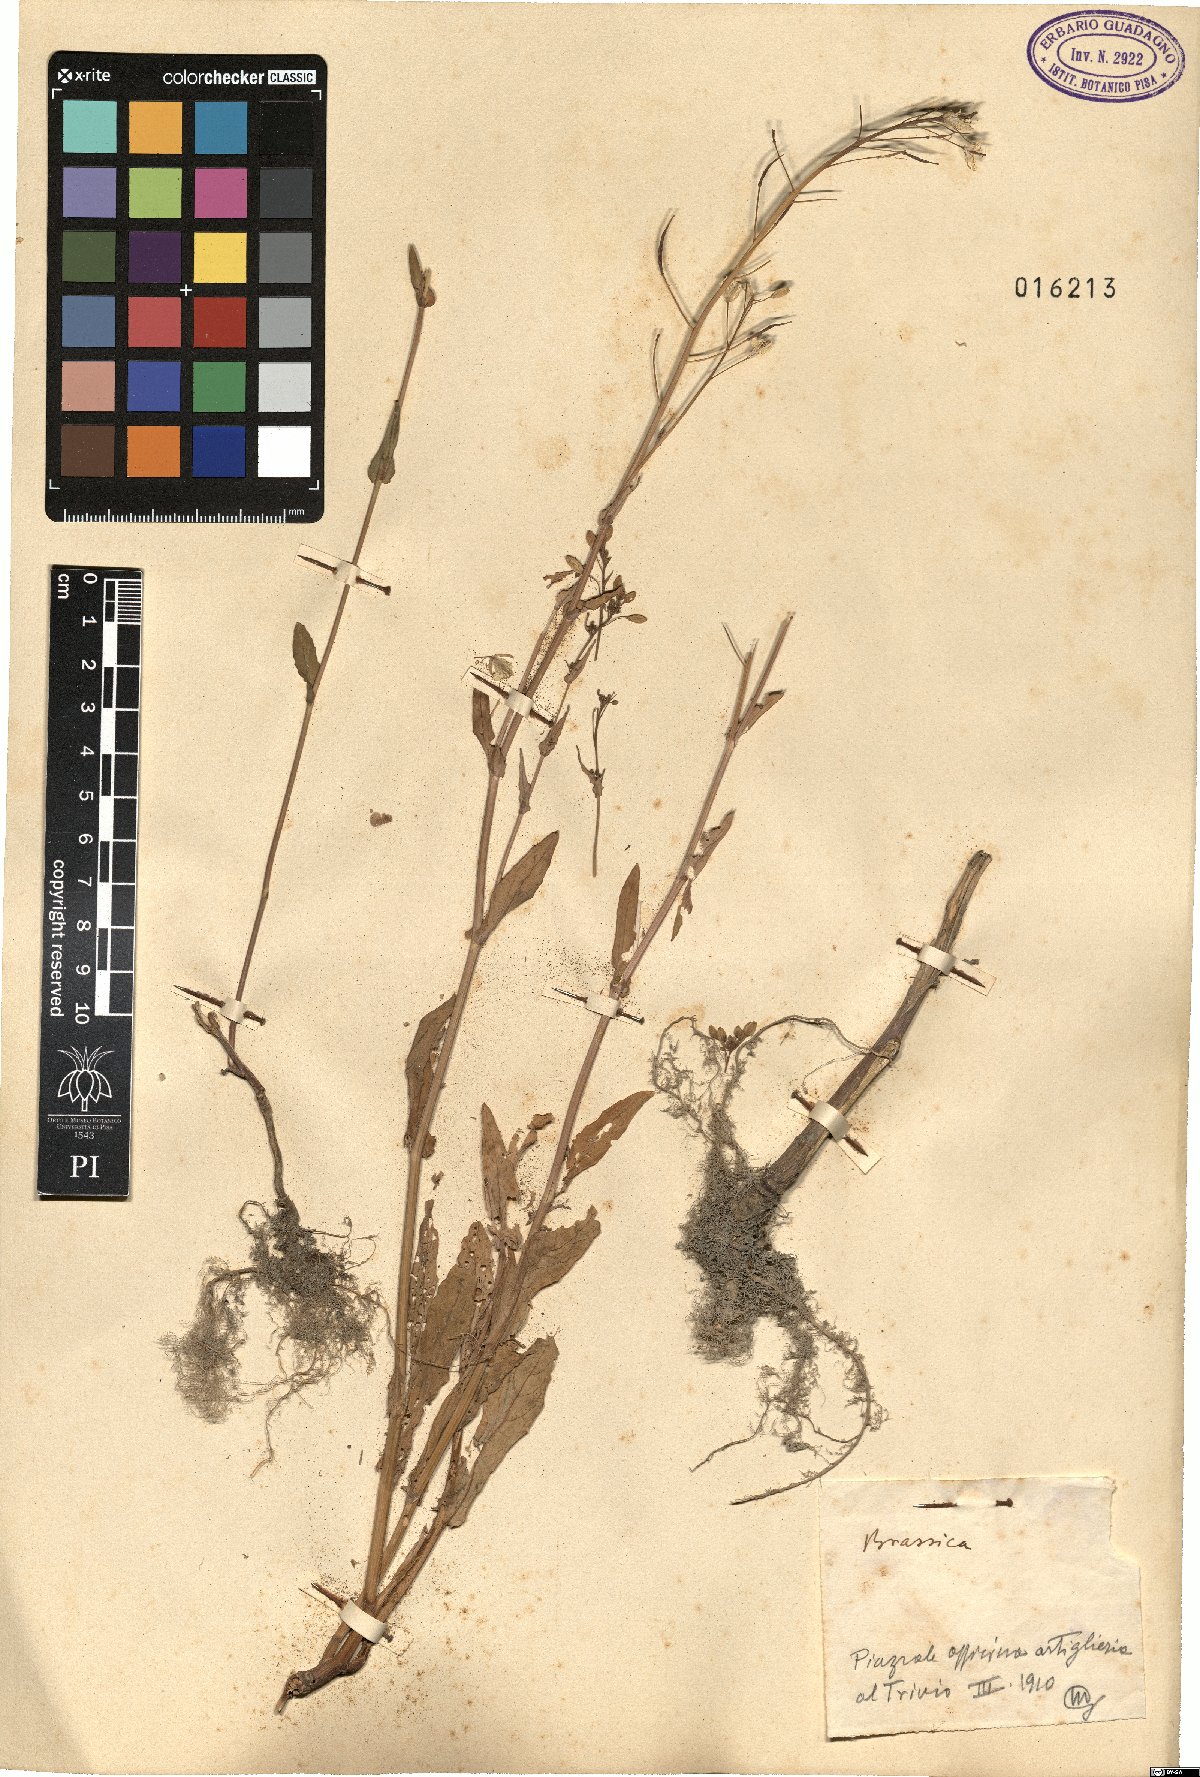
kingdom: Plantae
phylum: Tracheophyta
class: Magnoliopsida
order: Brassicales
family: Brassicaceae
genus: Brassica
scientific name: Brassica
